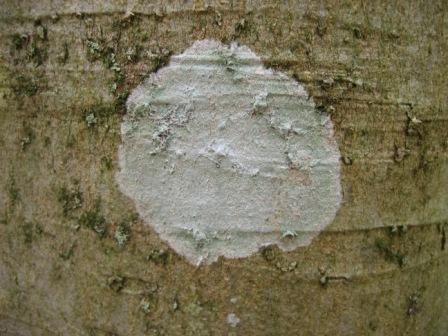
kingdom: Fungi
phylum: Ascomycota
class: Lecanoromycetes
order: Ostropales
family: Phlyctidaceae
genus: Phlyctis
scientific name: Phlyctis argena
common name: almindelig sølvlav
